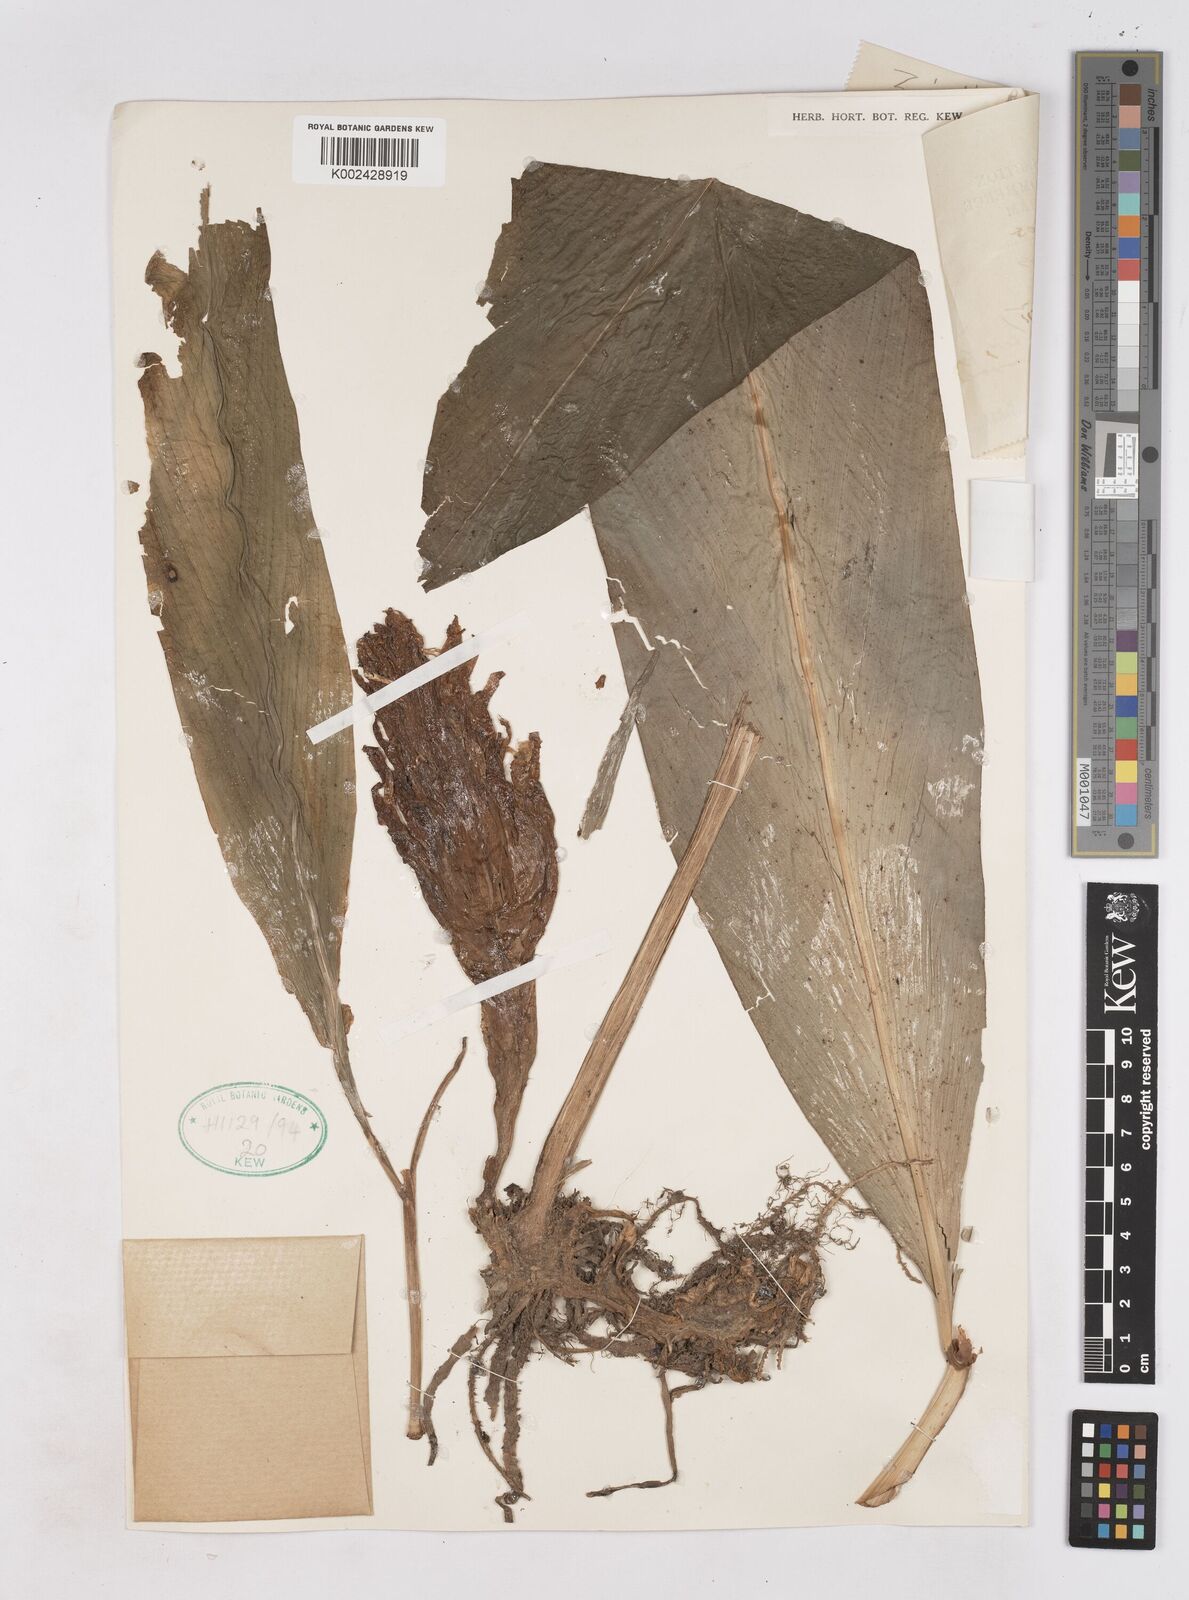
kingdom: Plantae
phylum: Tracheophyta
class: Liliopsida
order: Zingiberales
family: Zingiberaceae
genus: Zingiber
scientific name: Zingiber longibracteatum
